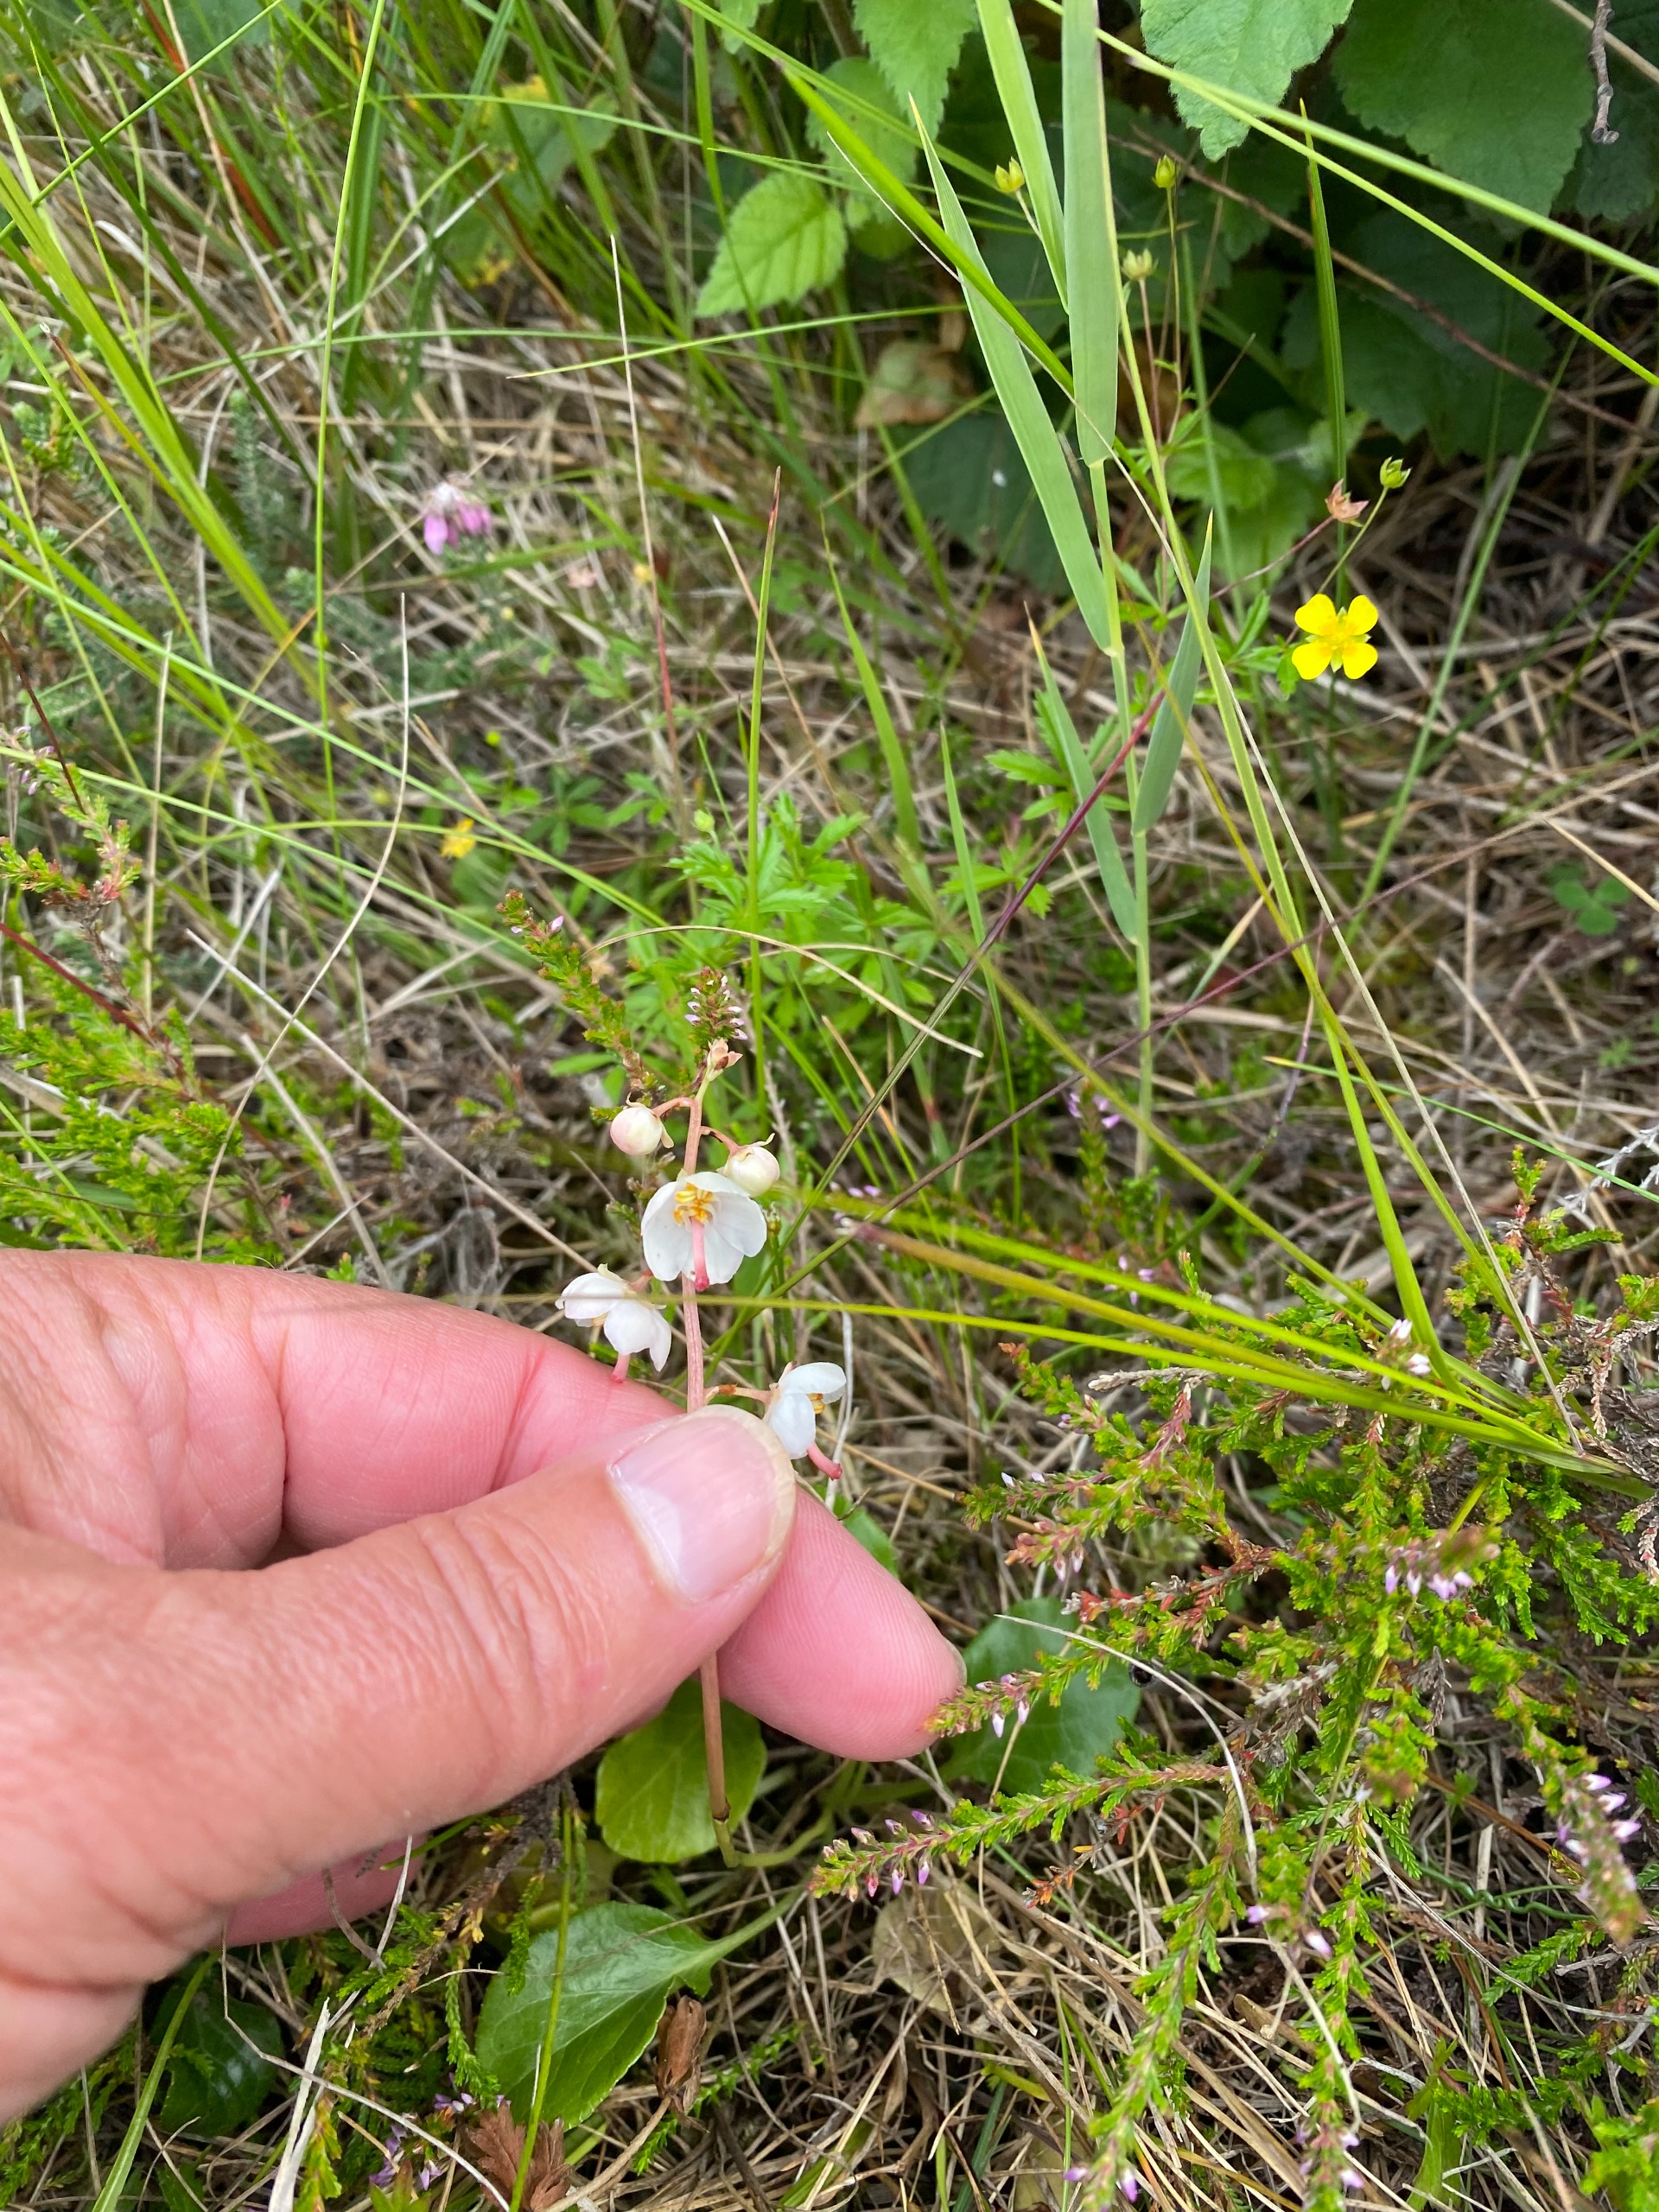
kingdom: Plantae
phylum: Tracheophyta
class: Magnoliopsida
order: Ericales
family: Ericaceae
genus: Pyrola
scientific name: Pyrola rotundifolia
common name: Mose-vintergrøn
